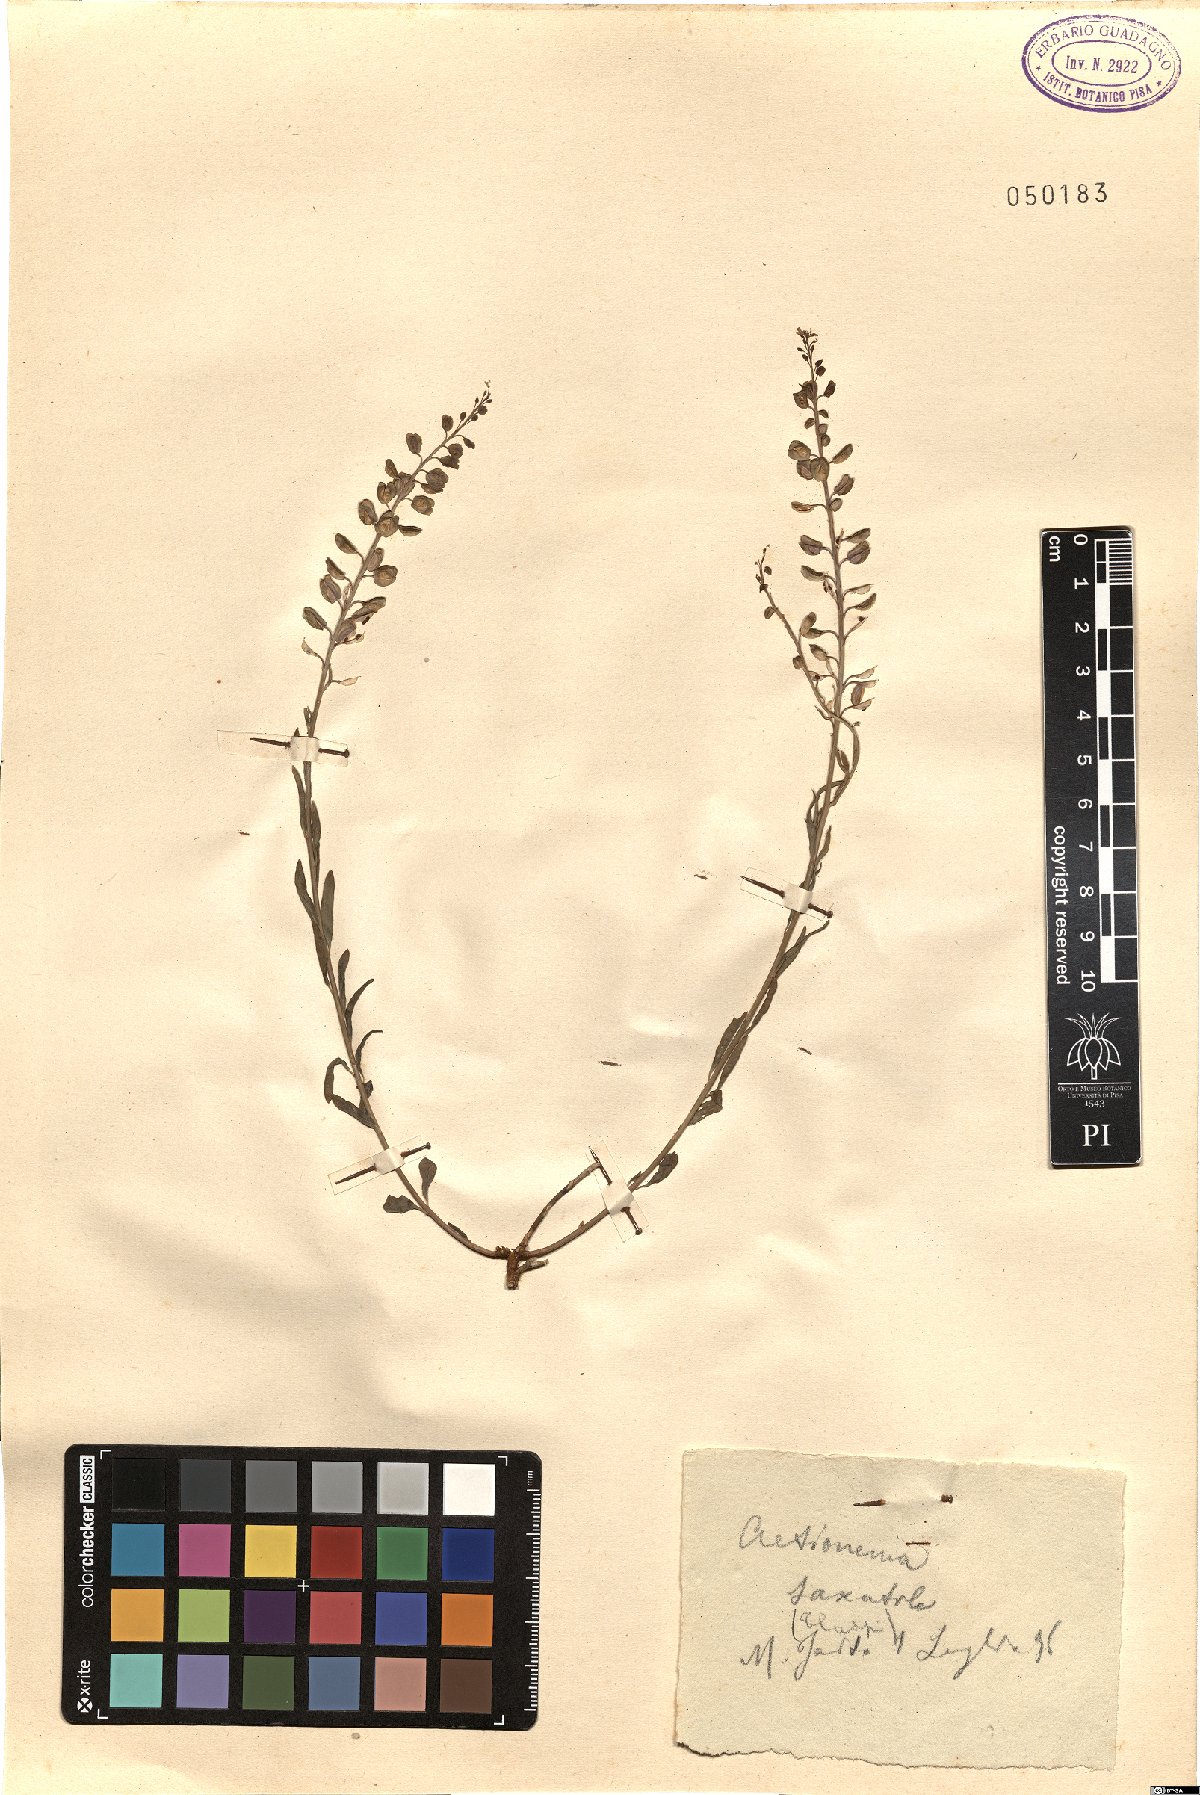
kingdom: Plantae
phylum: Tracheophyta
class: Magnoliopsida
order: Brassicales
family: Brassicaceae
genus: Aethionema
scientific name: Aethionema saxatile
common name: Burnt candytuft
